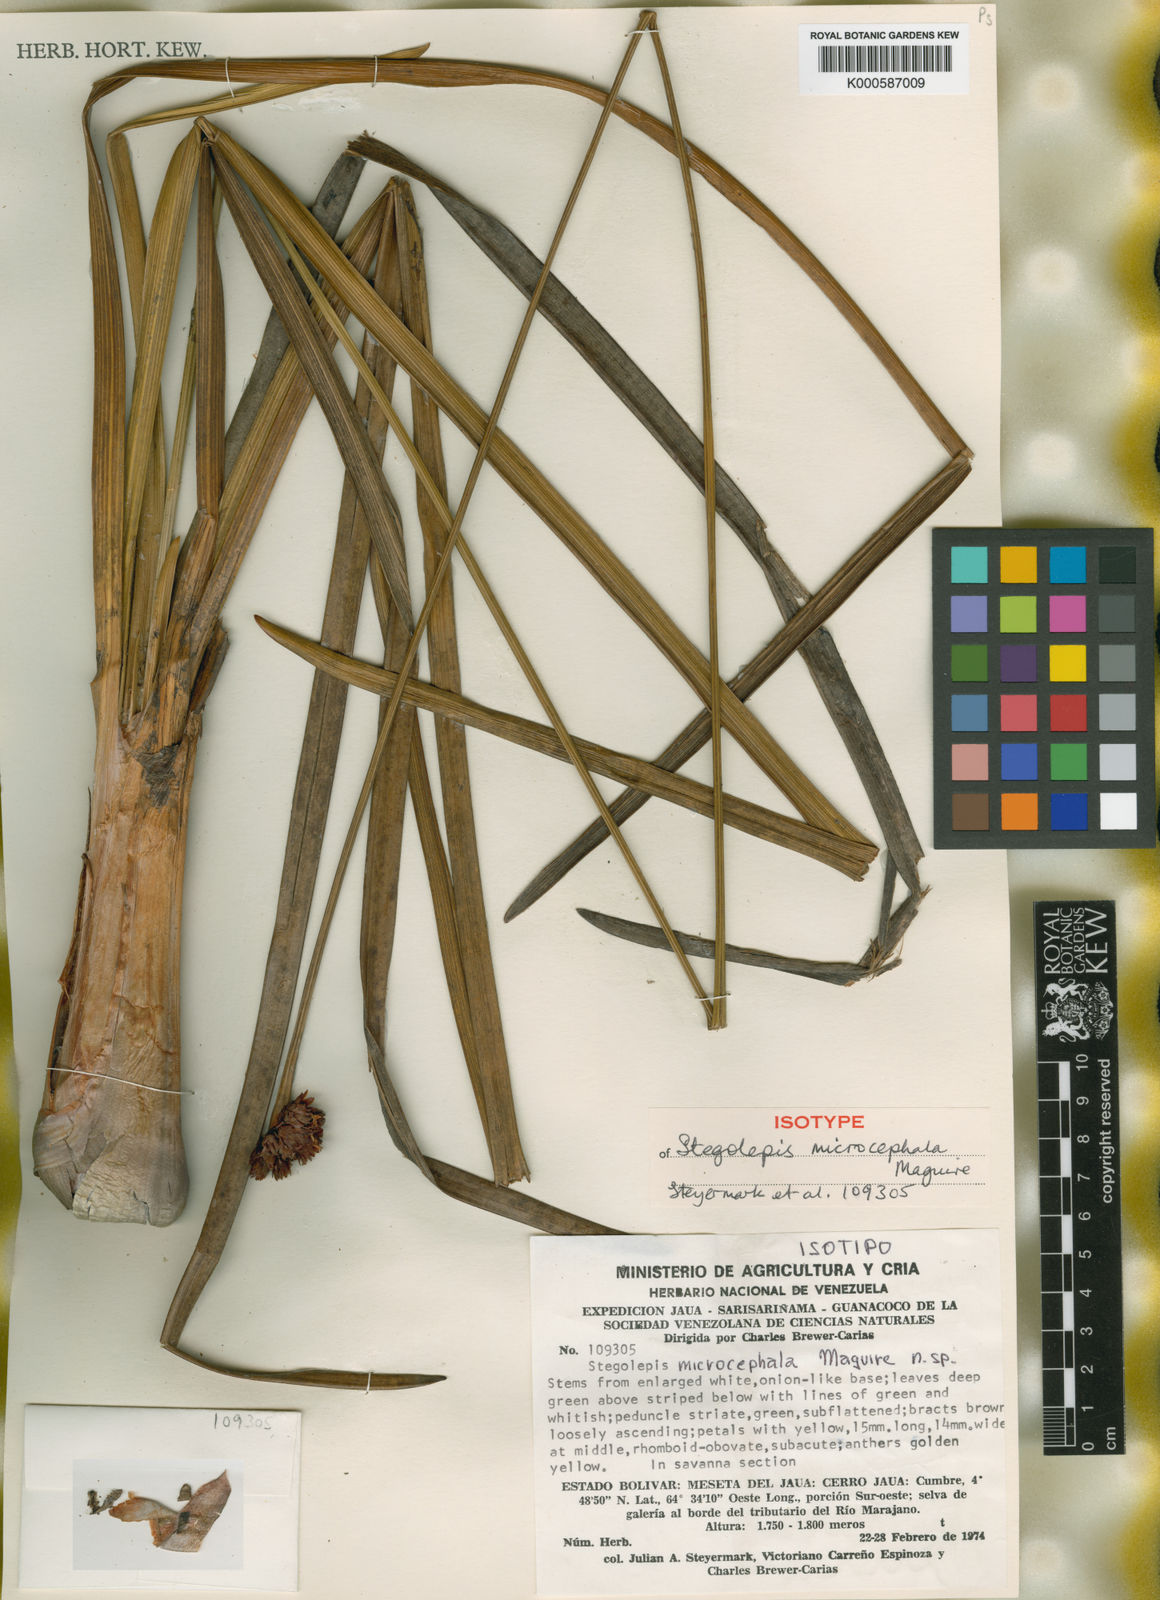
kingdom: Plantae
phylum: Tracheophyta
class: Liliopsida
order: Poales
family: Rapateaceae
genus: Stegolepis
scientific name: Stegolepis microcephala
